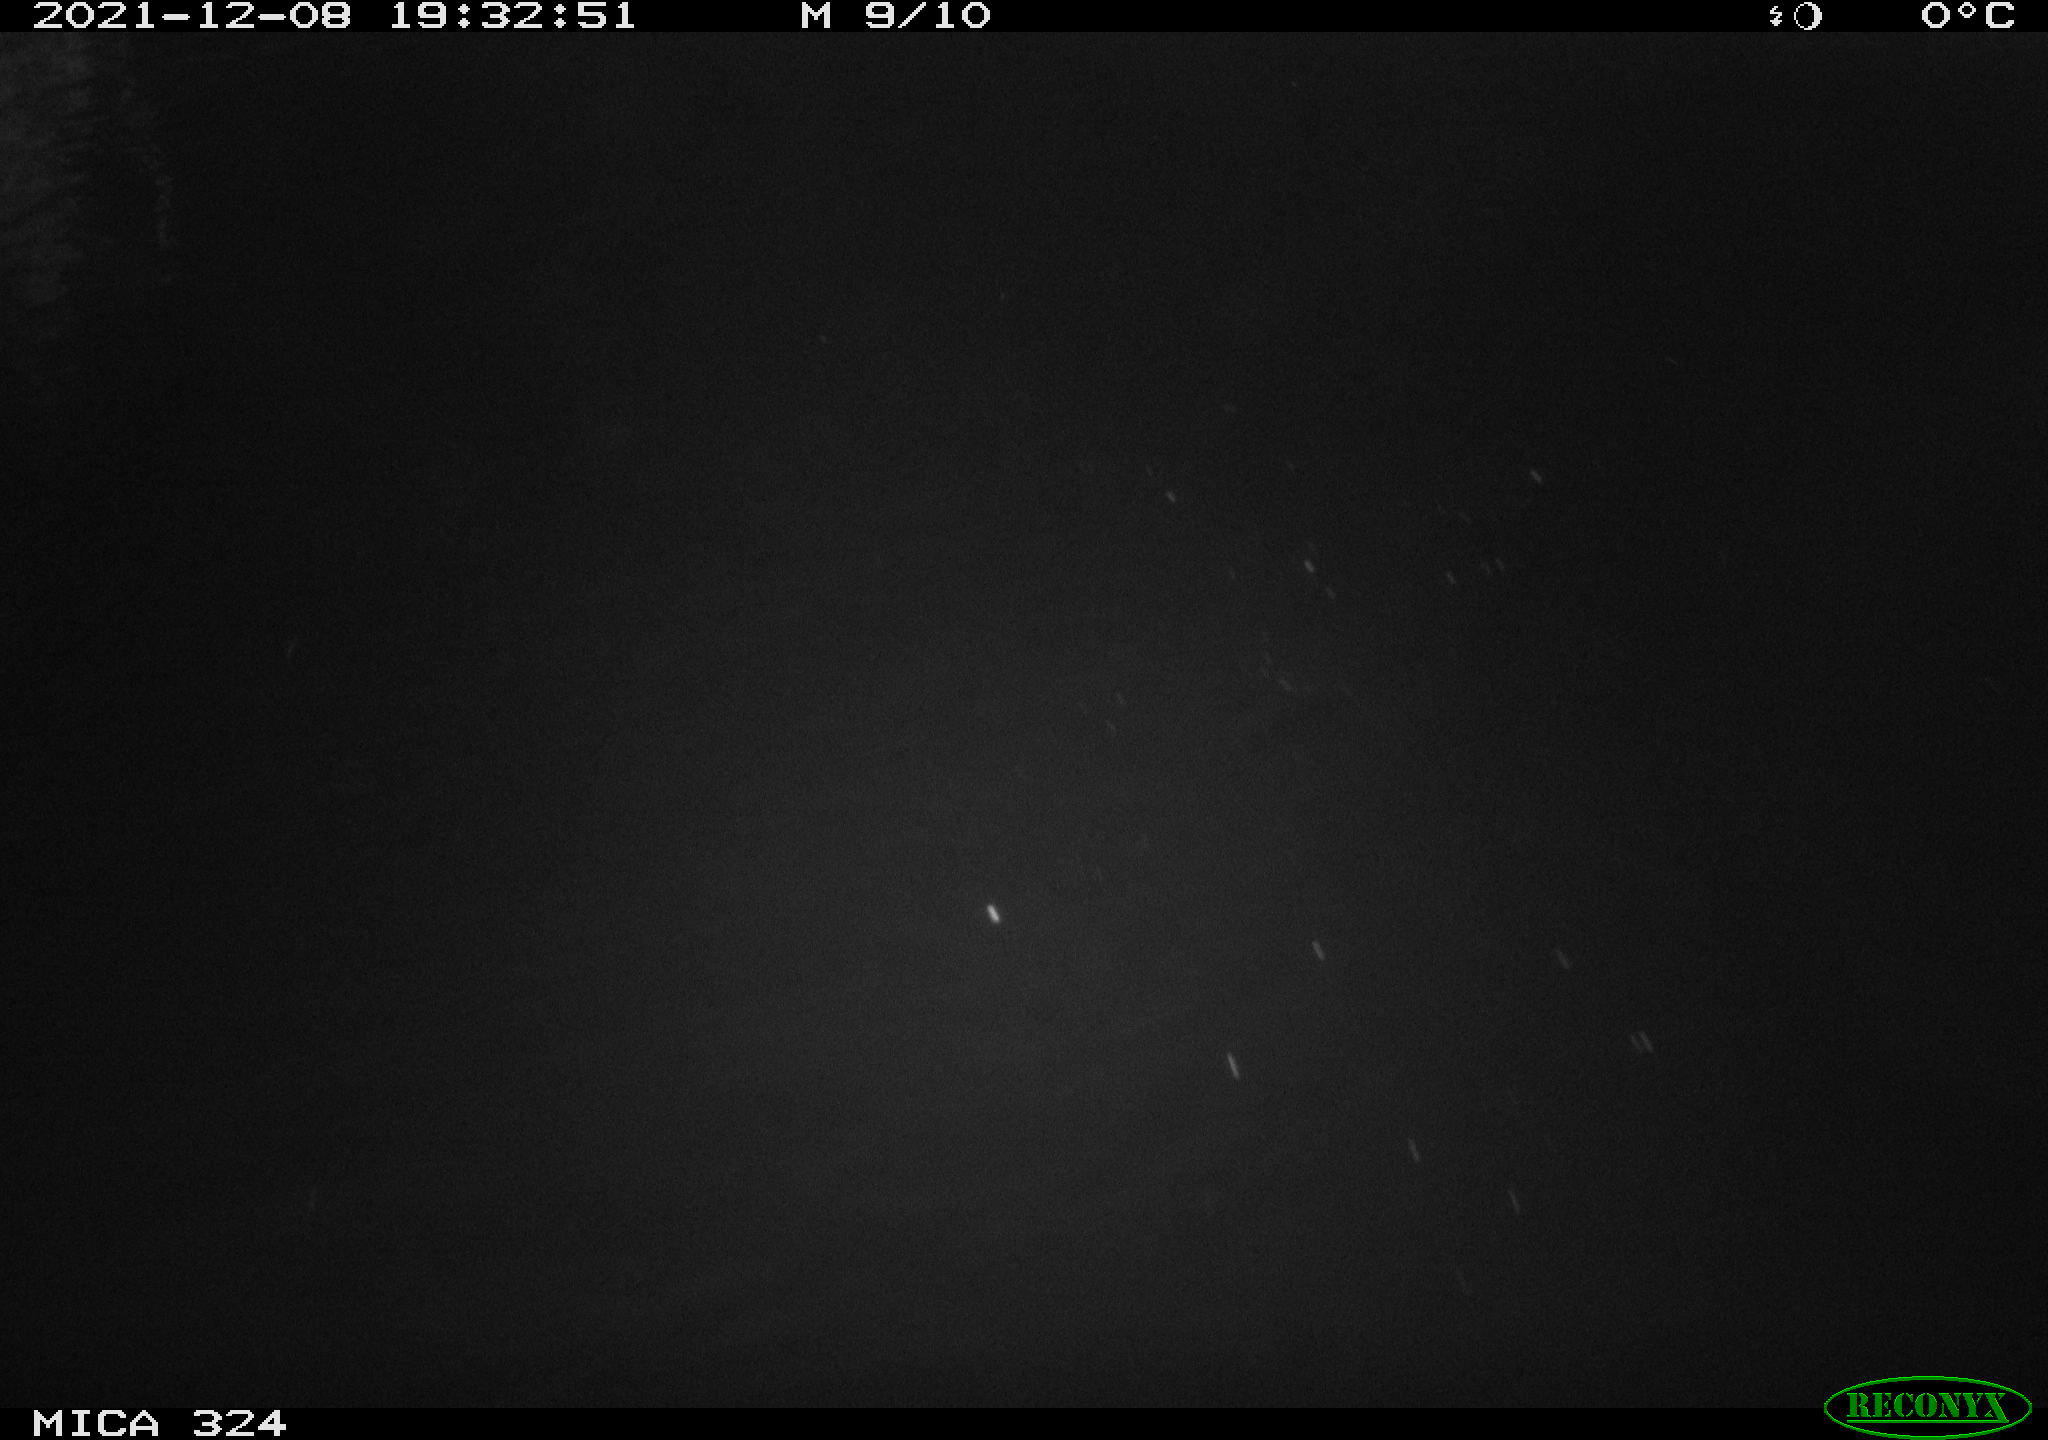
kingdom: Animalia
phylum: Chordata
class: Mammalia
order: Rodentia
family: Cricetidae
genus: Ondatra
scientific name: Ondatra zibethicus
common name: Muskrat
